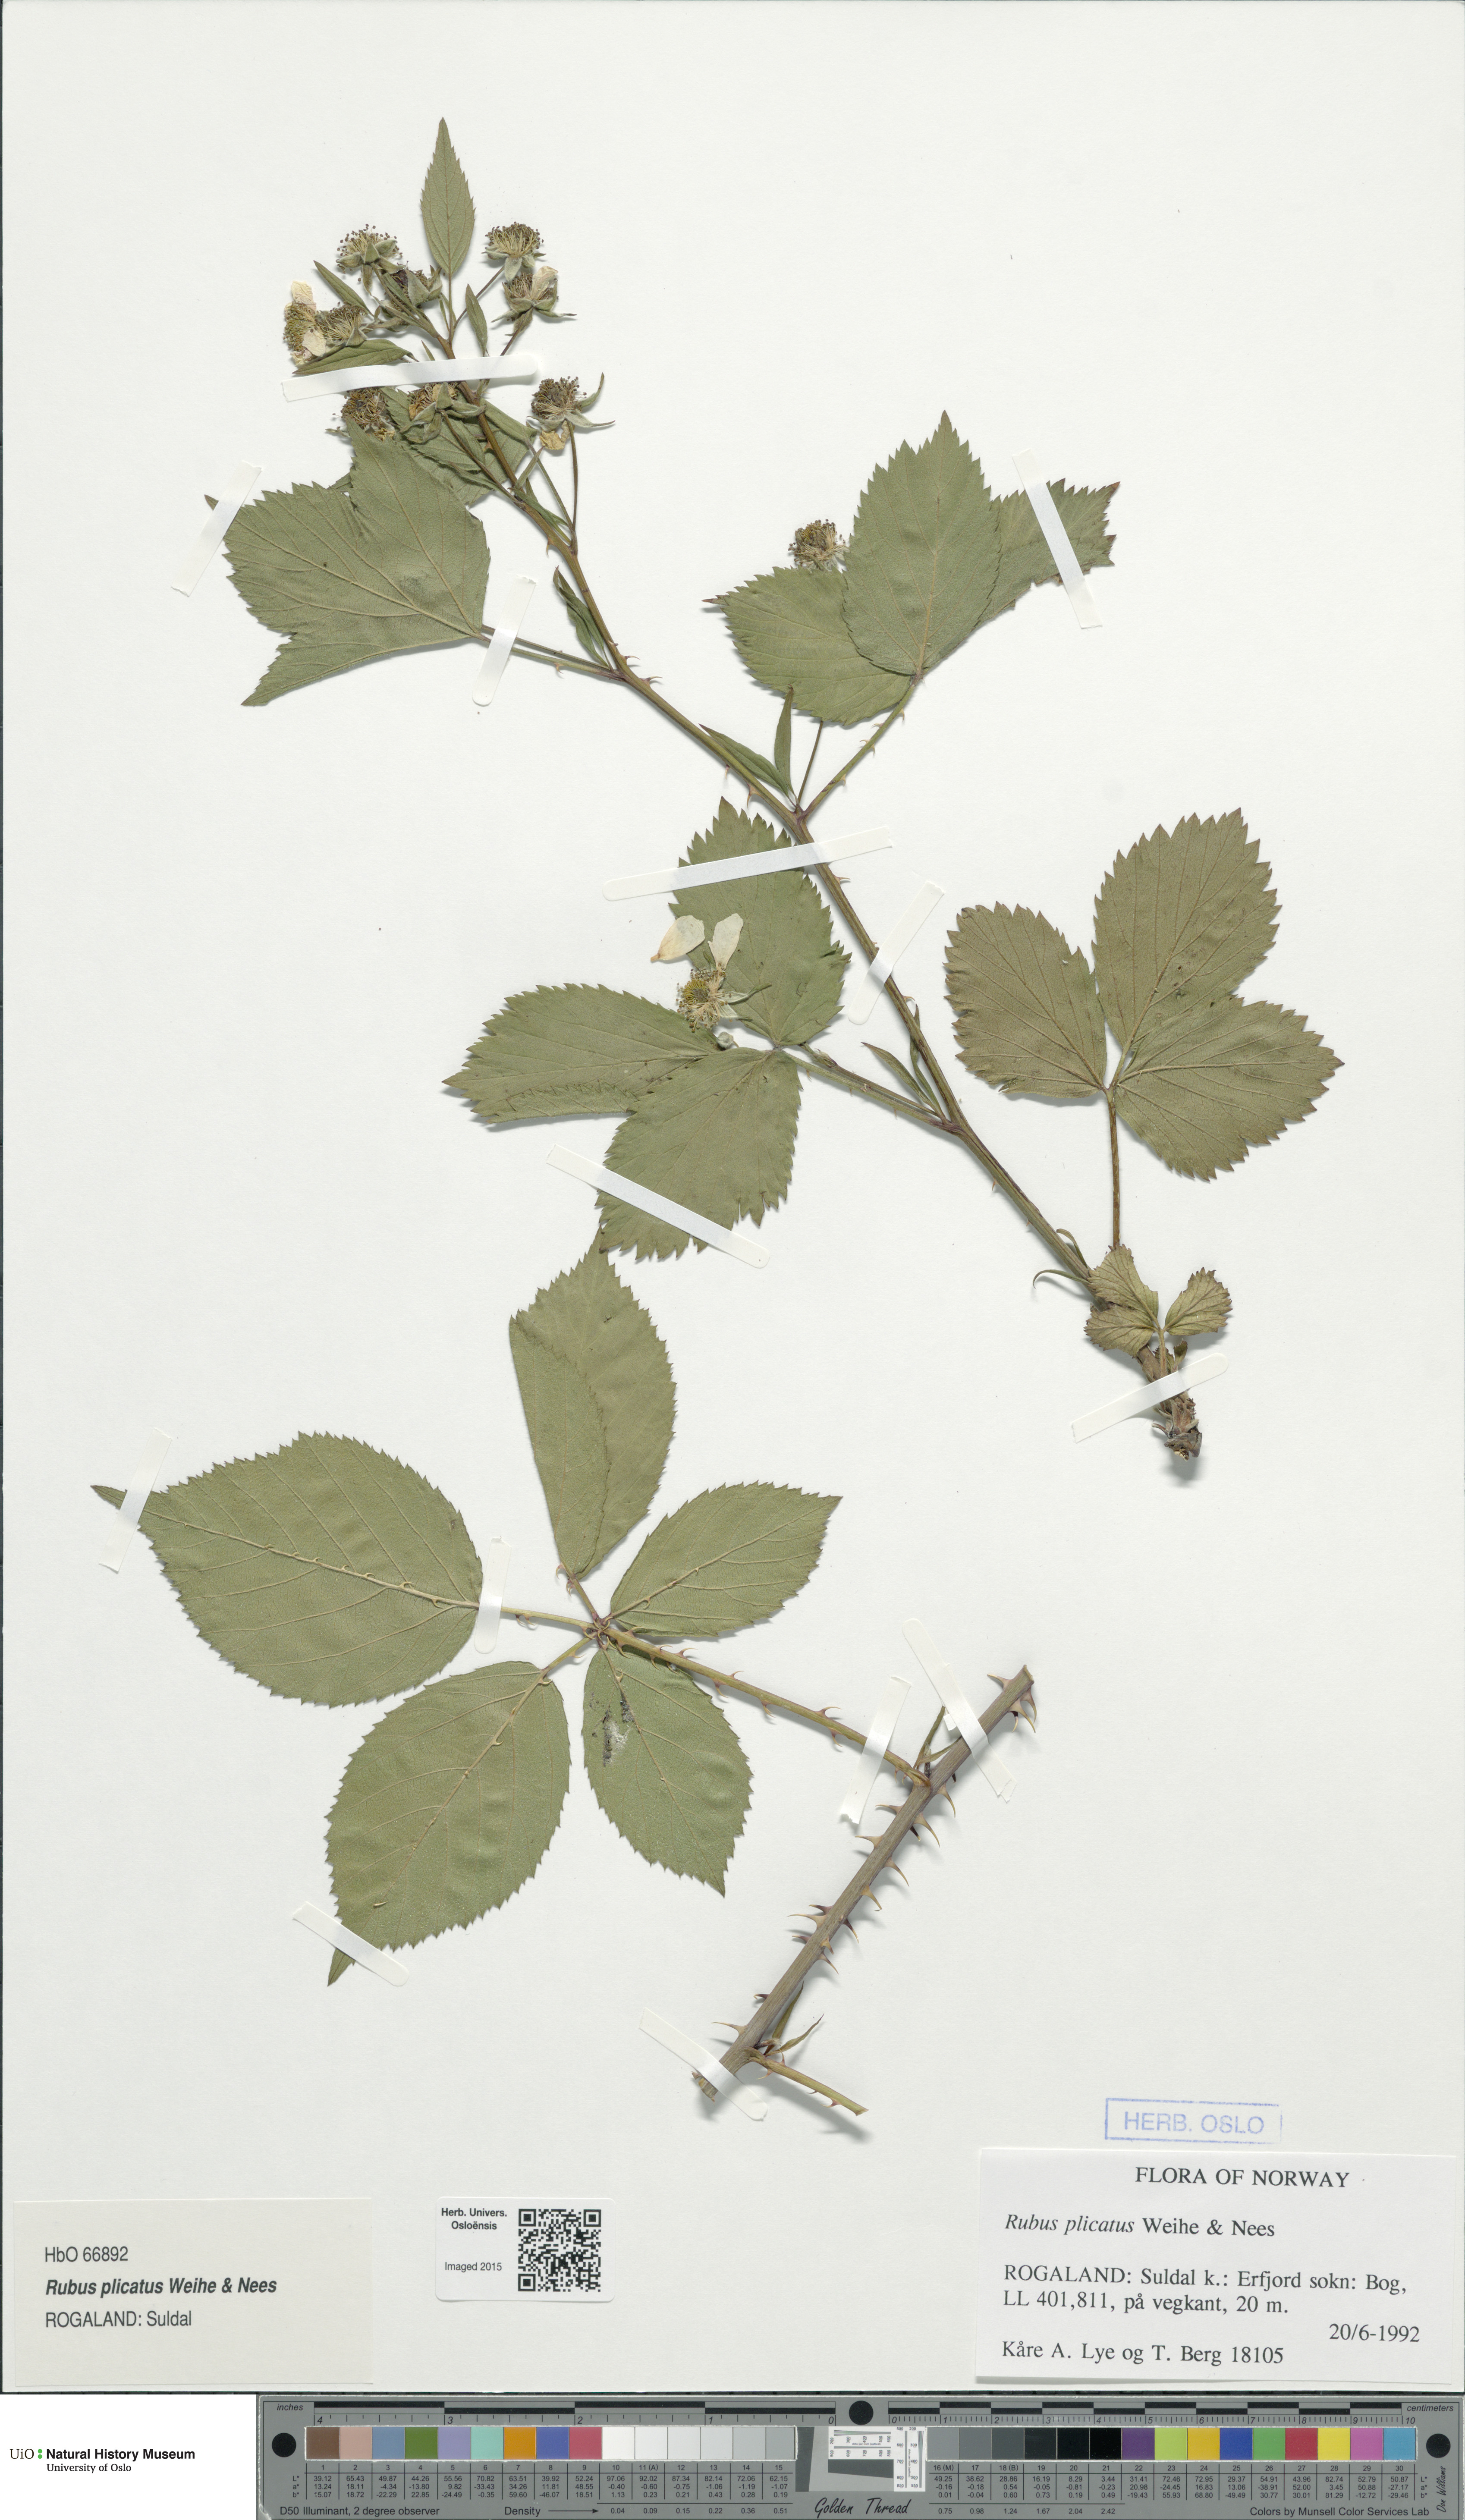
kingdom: Plantae
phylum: Tracheophyta
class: Magnoliopsida
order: Rosales
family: Rosaceae
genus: Rubus
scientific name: Rubus fruticosus
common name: Blackberry, bramble
